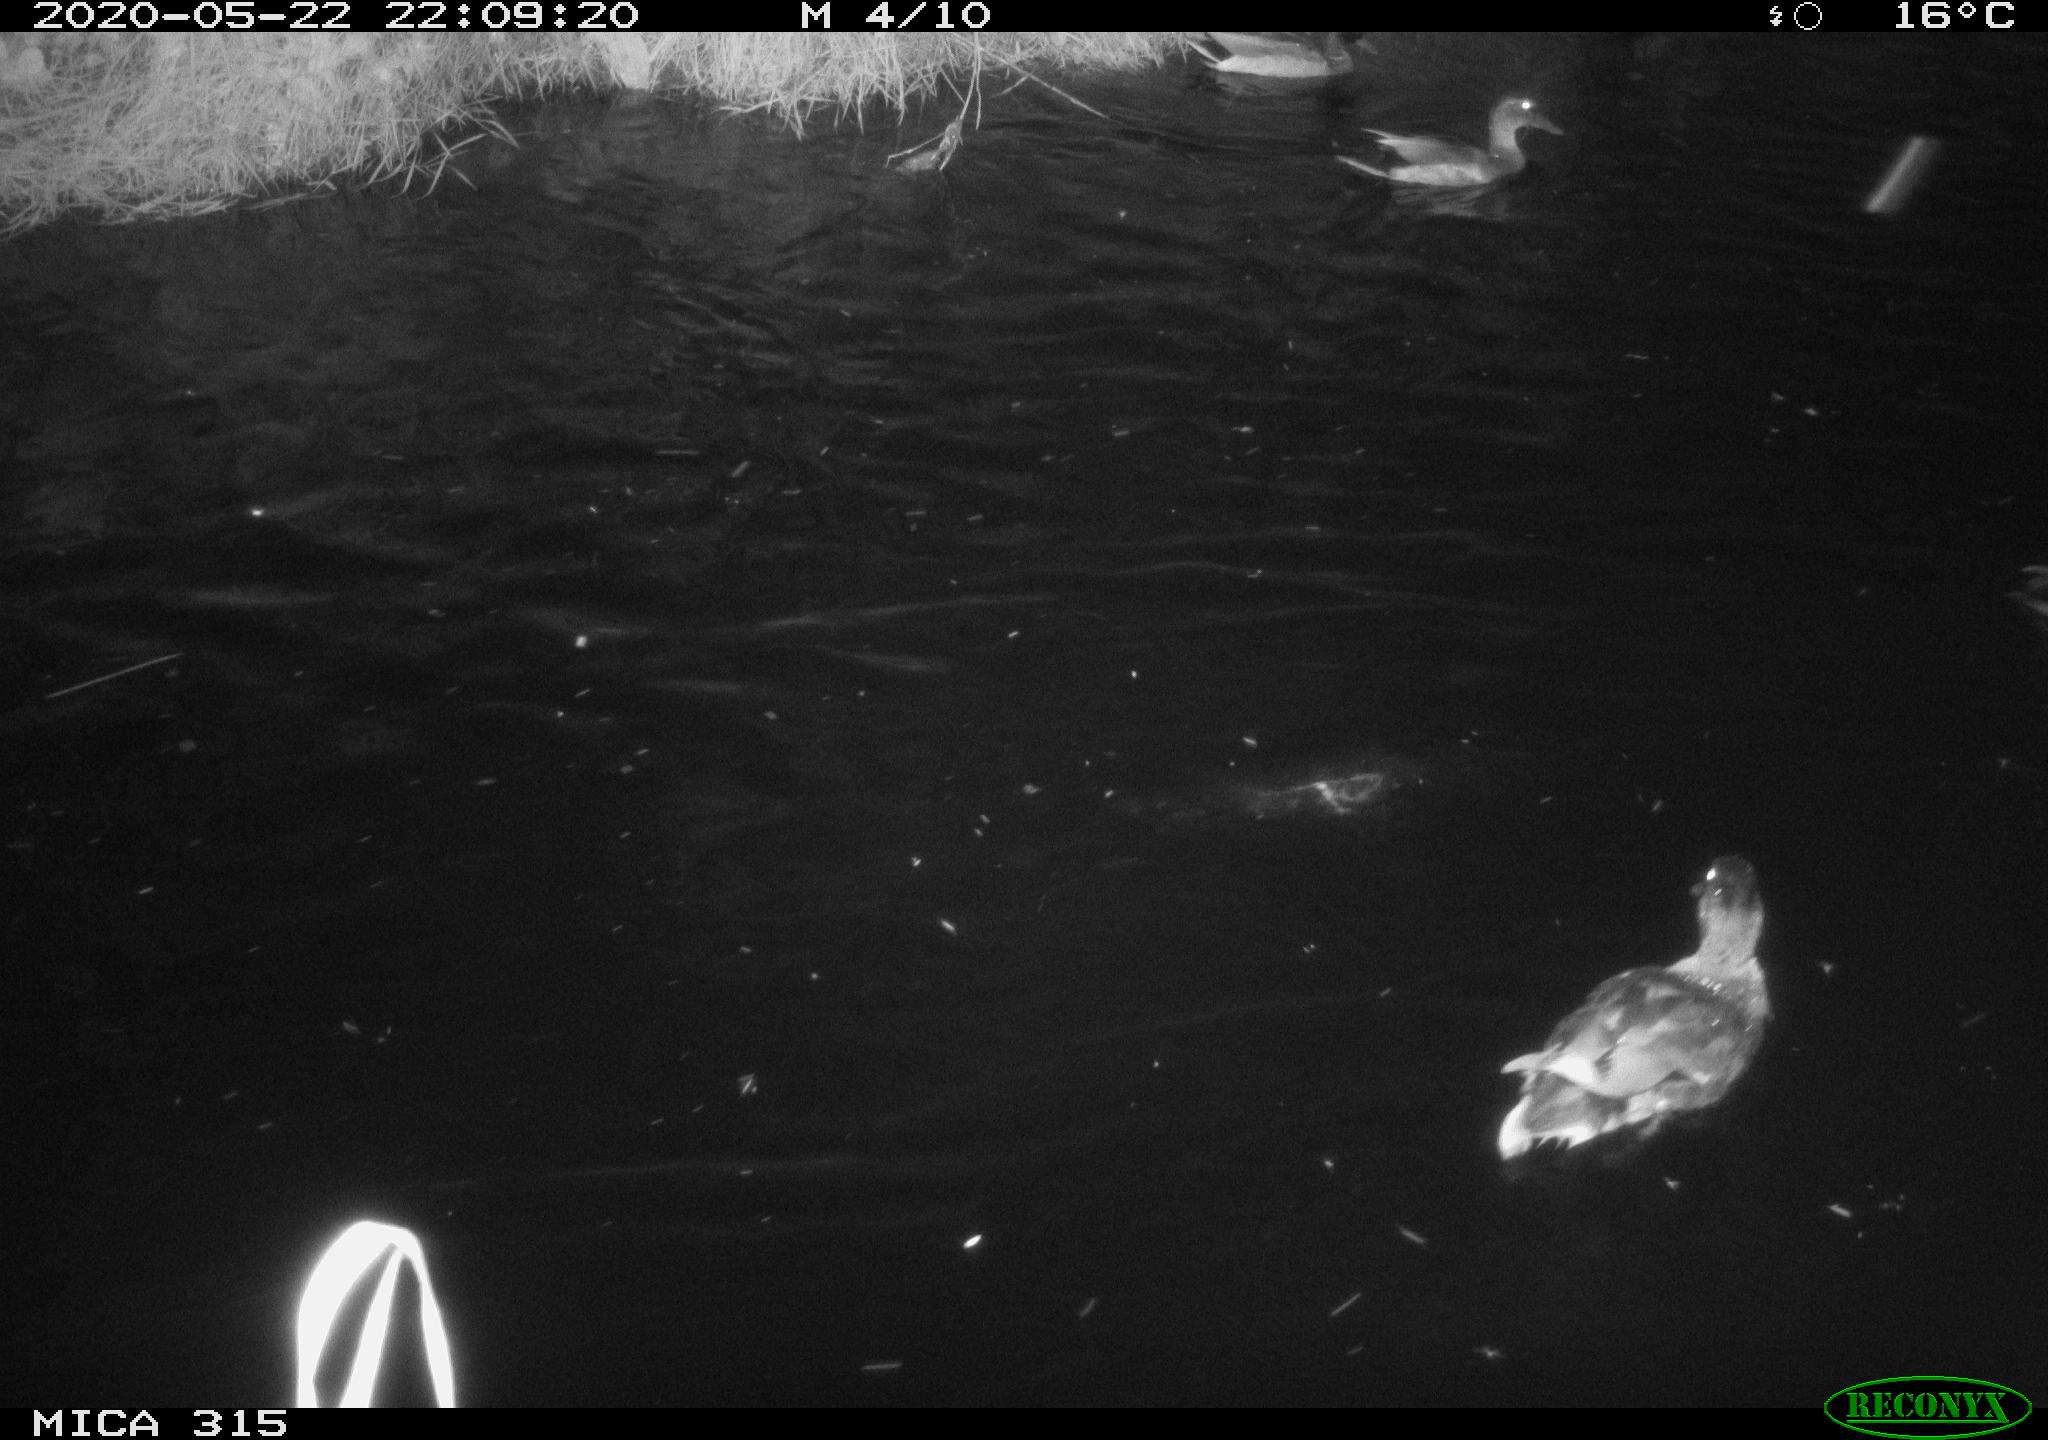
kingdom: Animalia
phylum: Chordata
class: Aves
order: Anseriformes
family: Anatidae
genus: Anas
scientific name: Anas platyrhynchos
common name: Mallard
